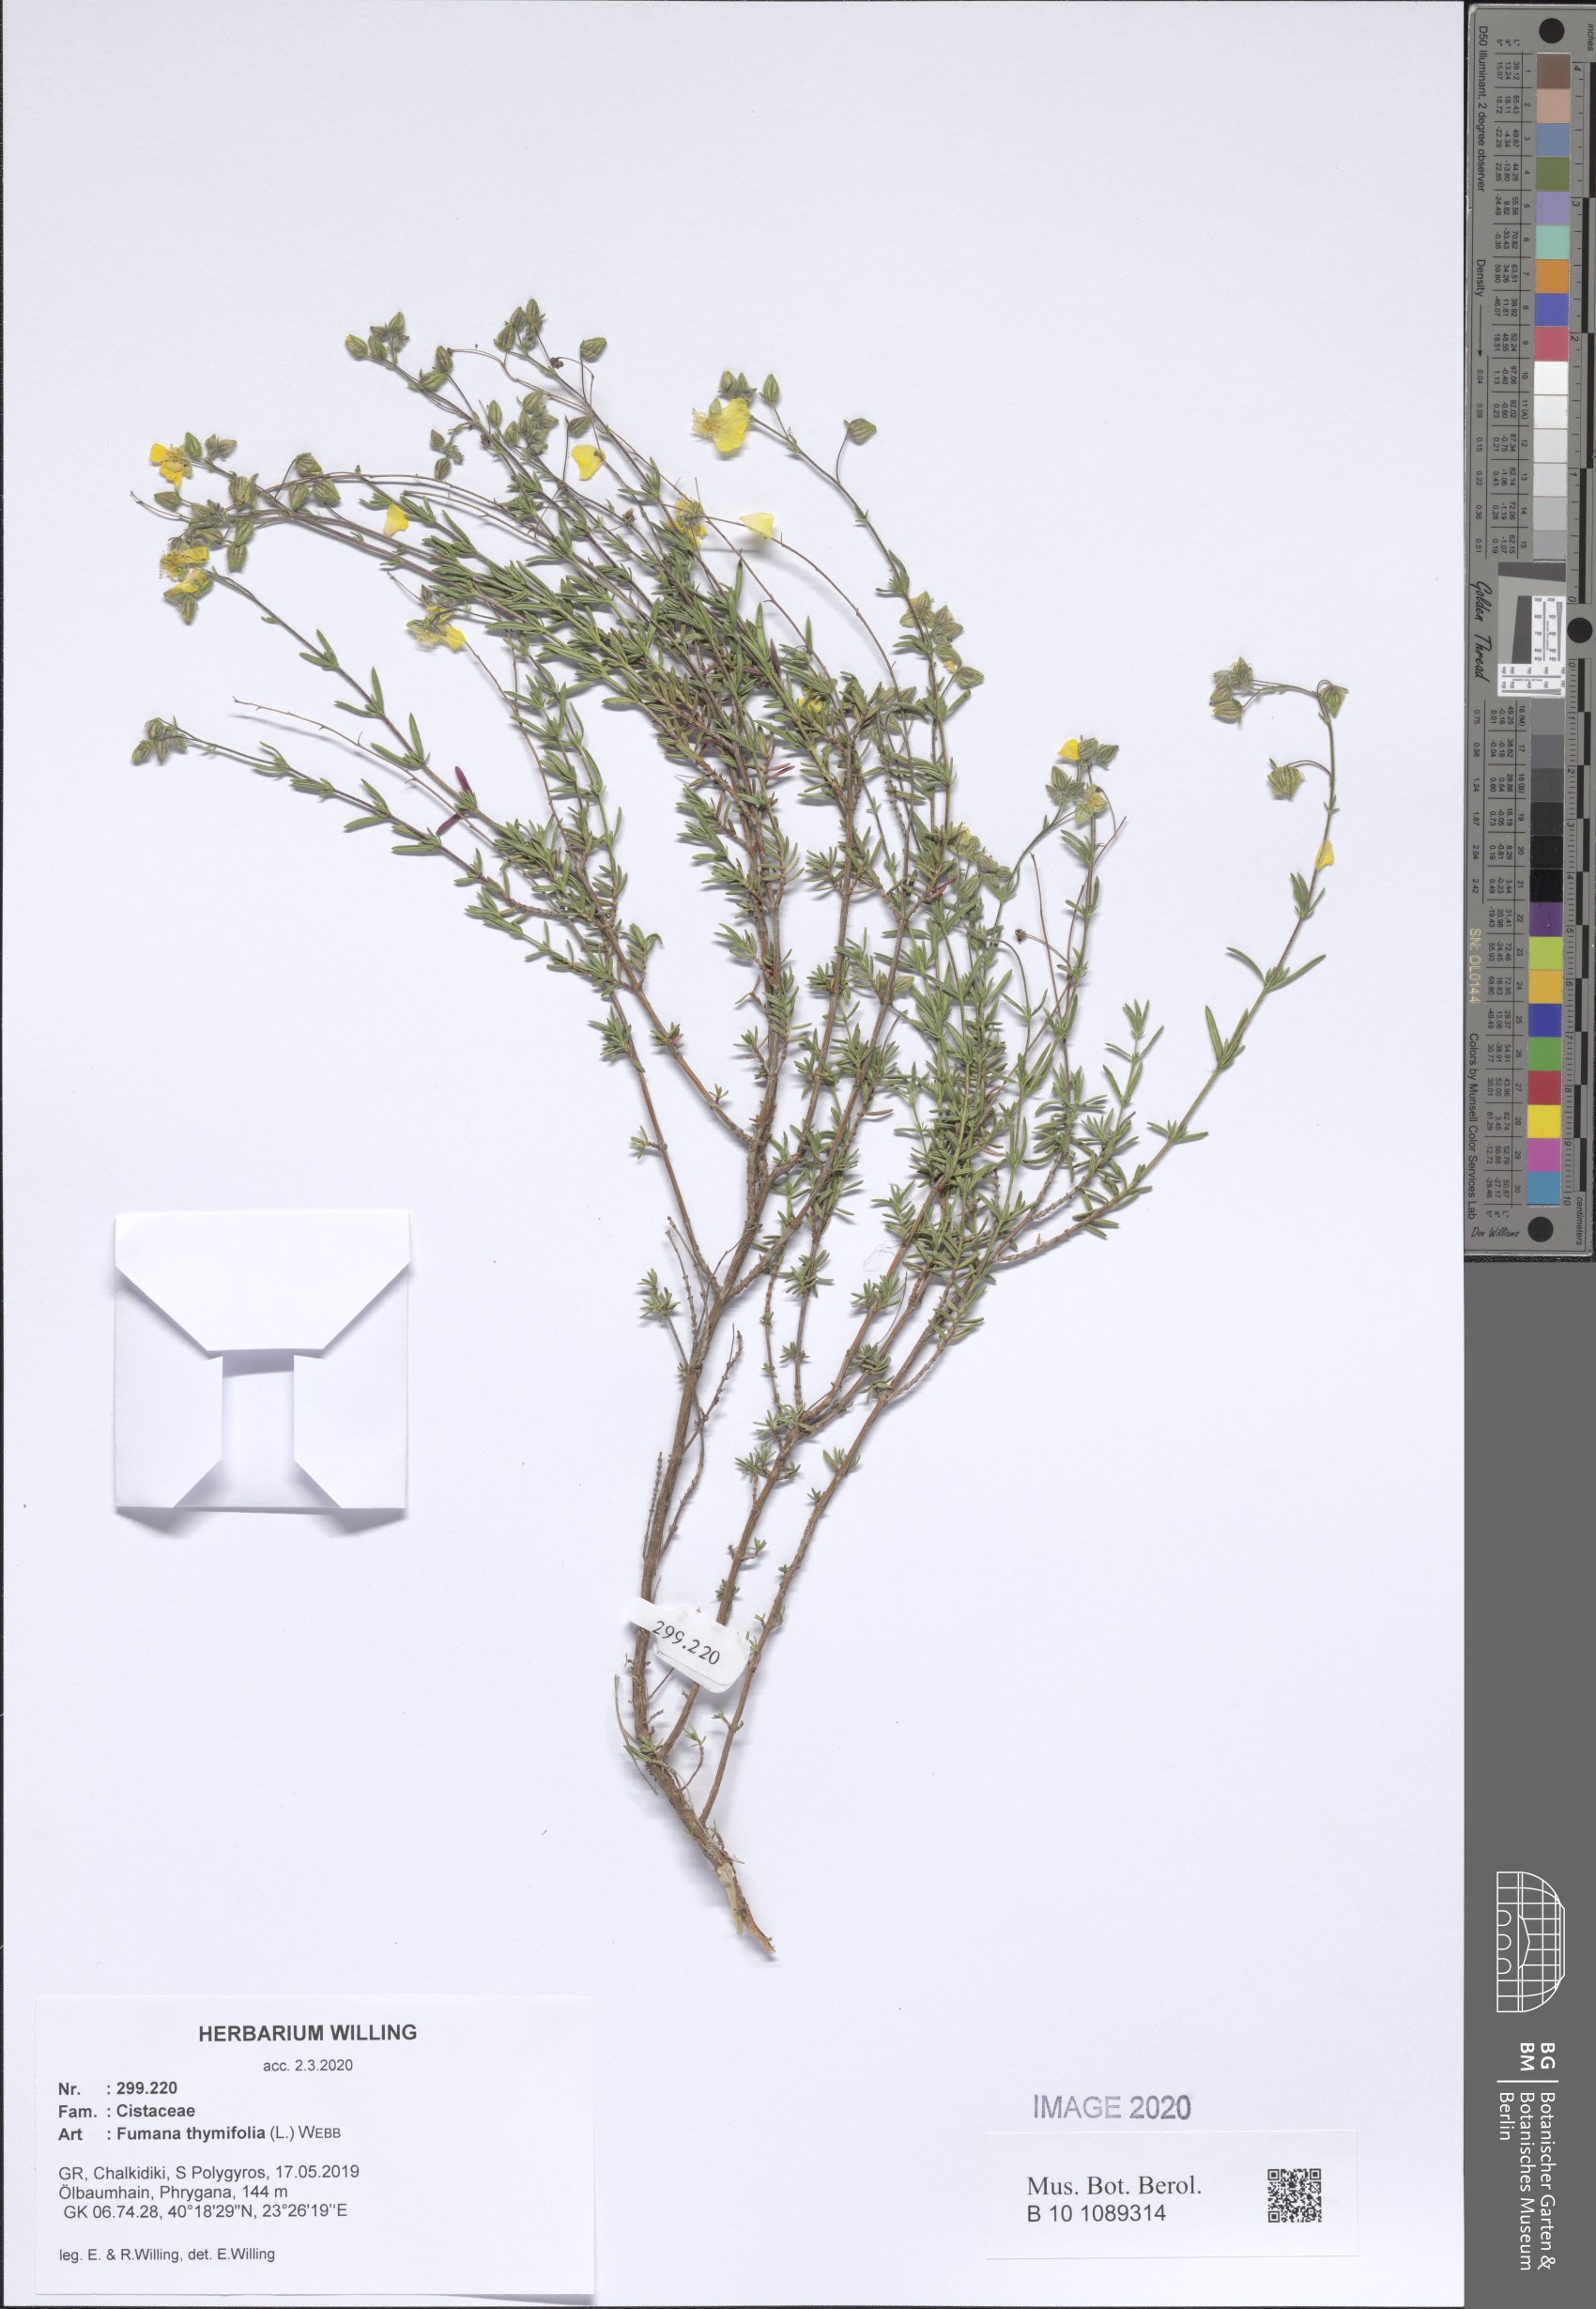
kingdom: Plantae
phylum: Tracheophyta
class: Magnoliopsida
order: Malvales
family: Cistaceae
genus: Fumana
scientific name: Fumana thymifolia
